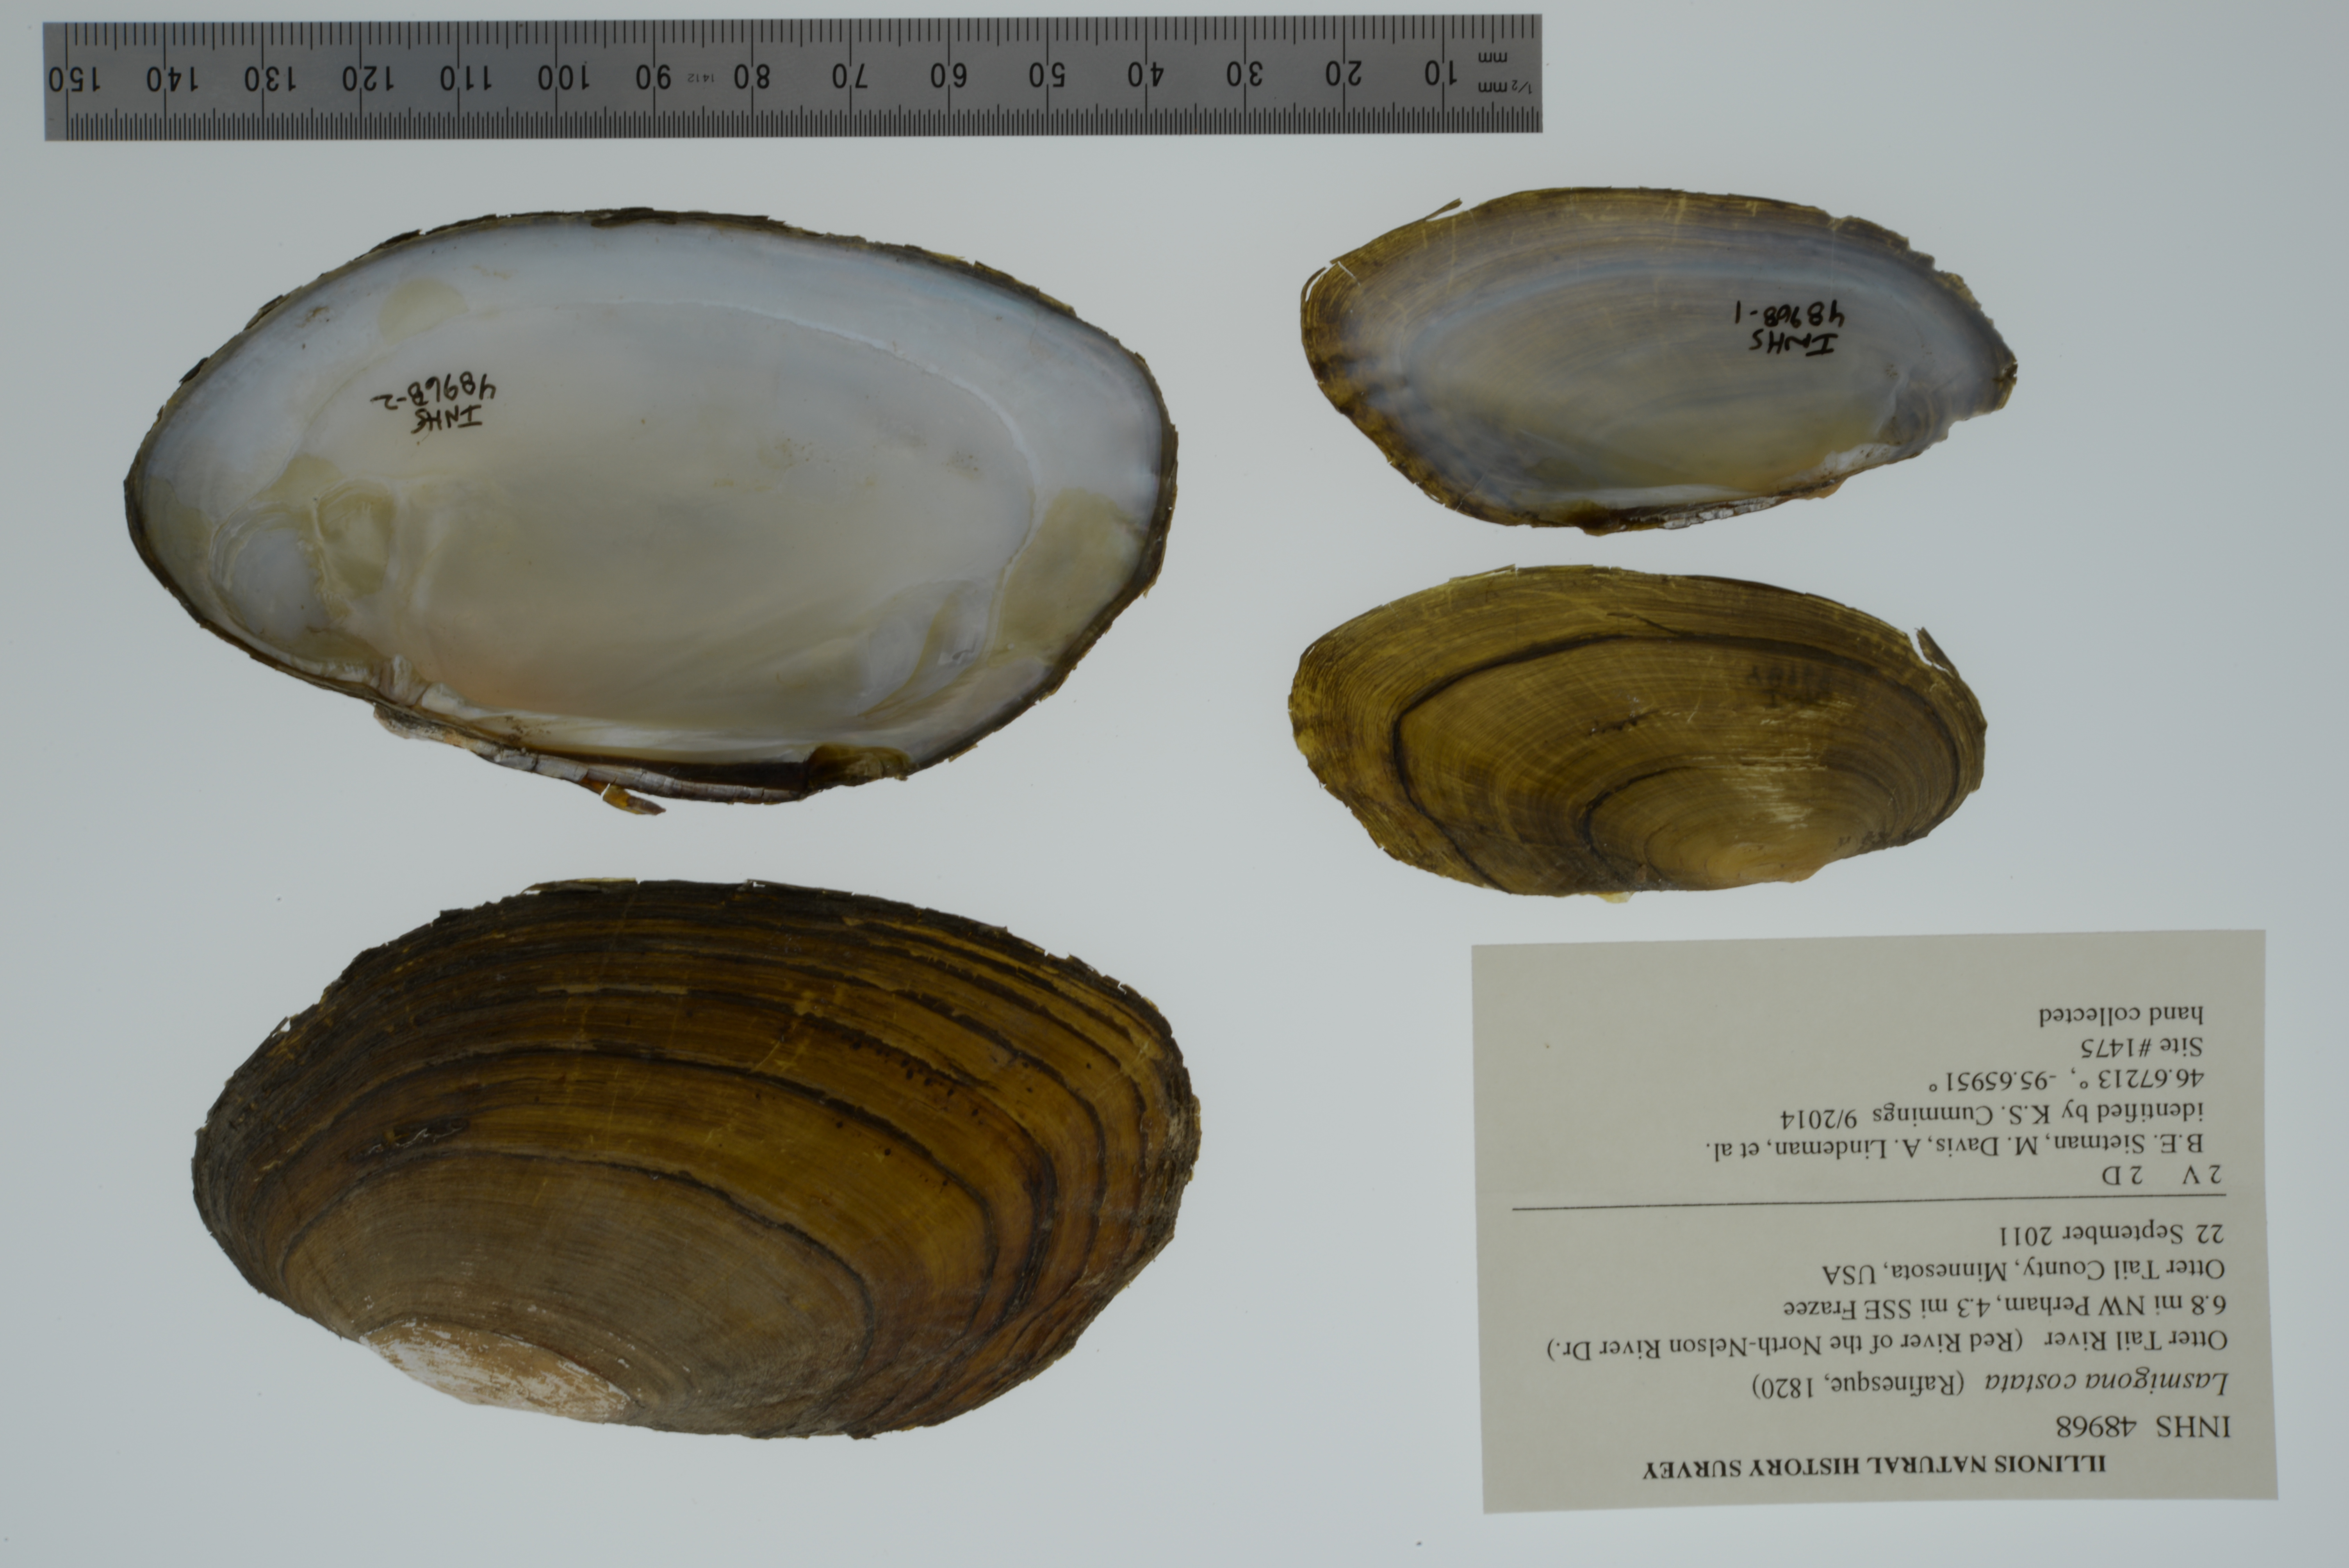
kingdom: Animalia
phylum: Mollusca
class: Bivalvia
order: Unionida
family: Unionidae
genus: Lasmigona
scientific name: Lasmigona costata
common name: Flutedshell
